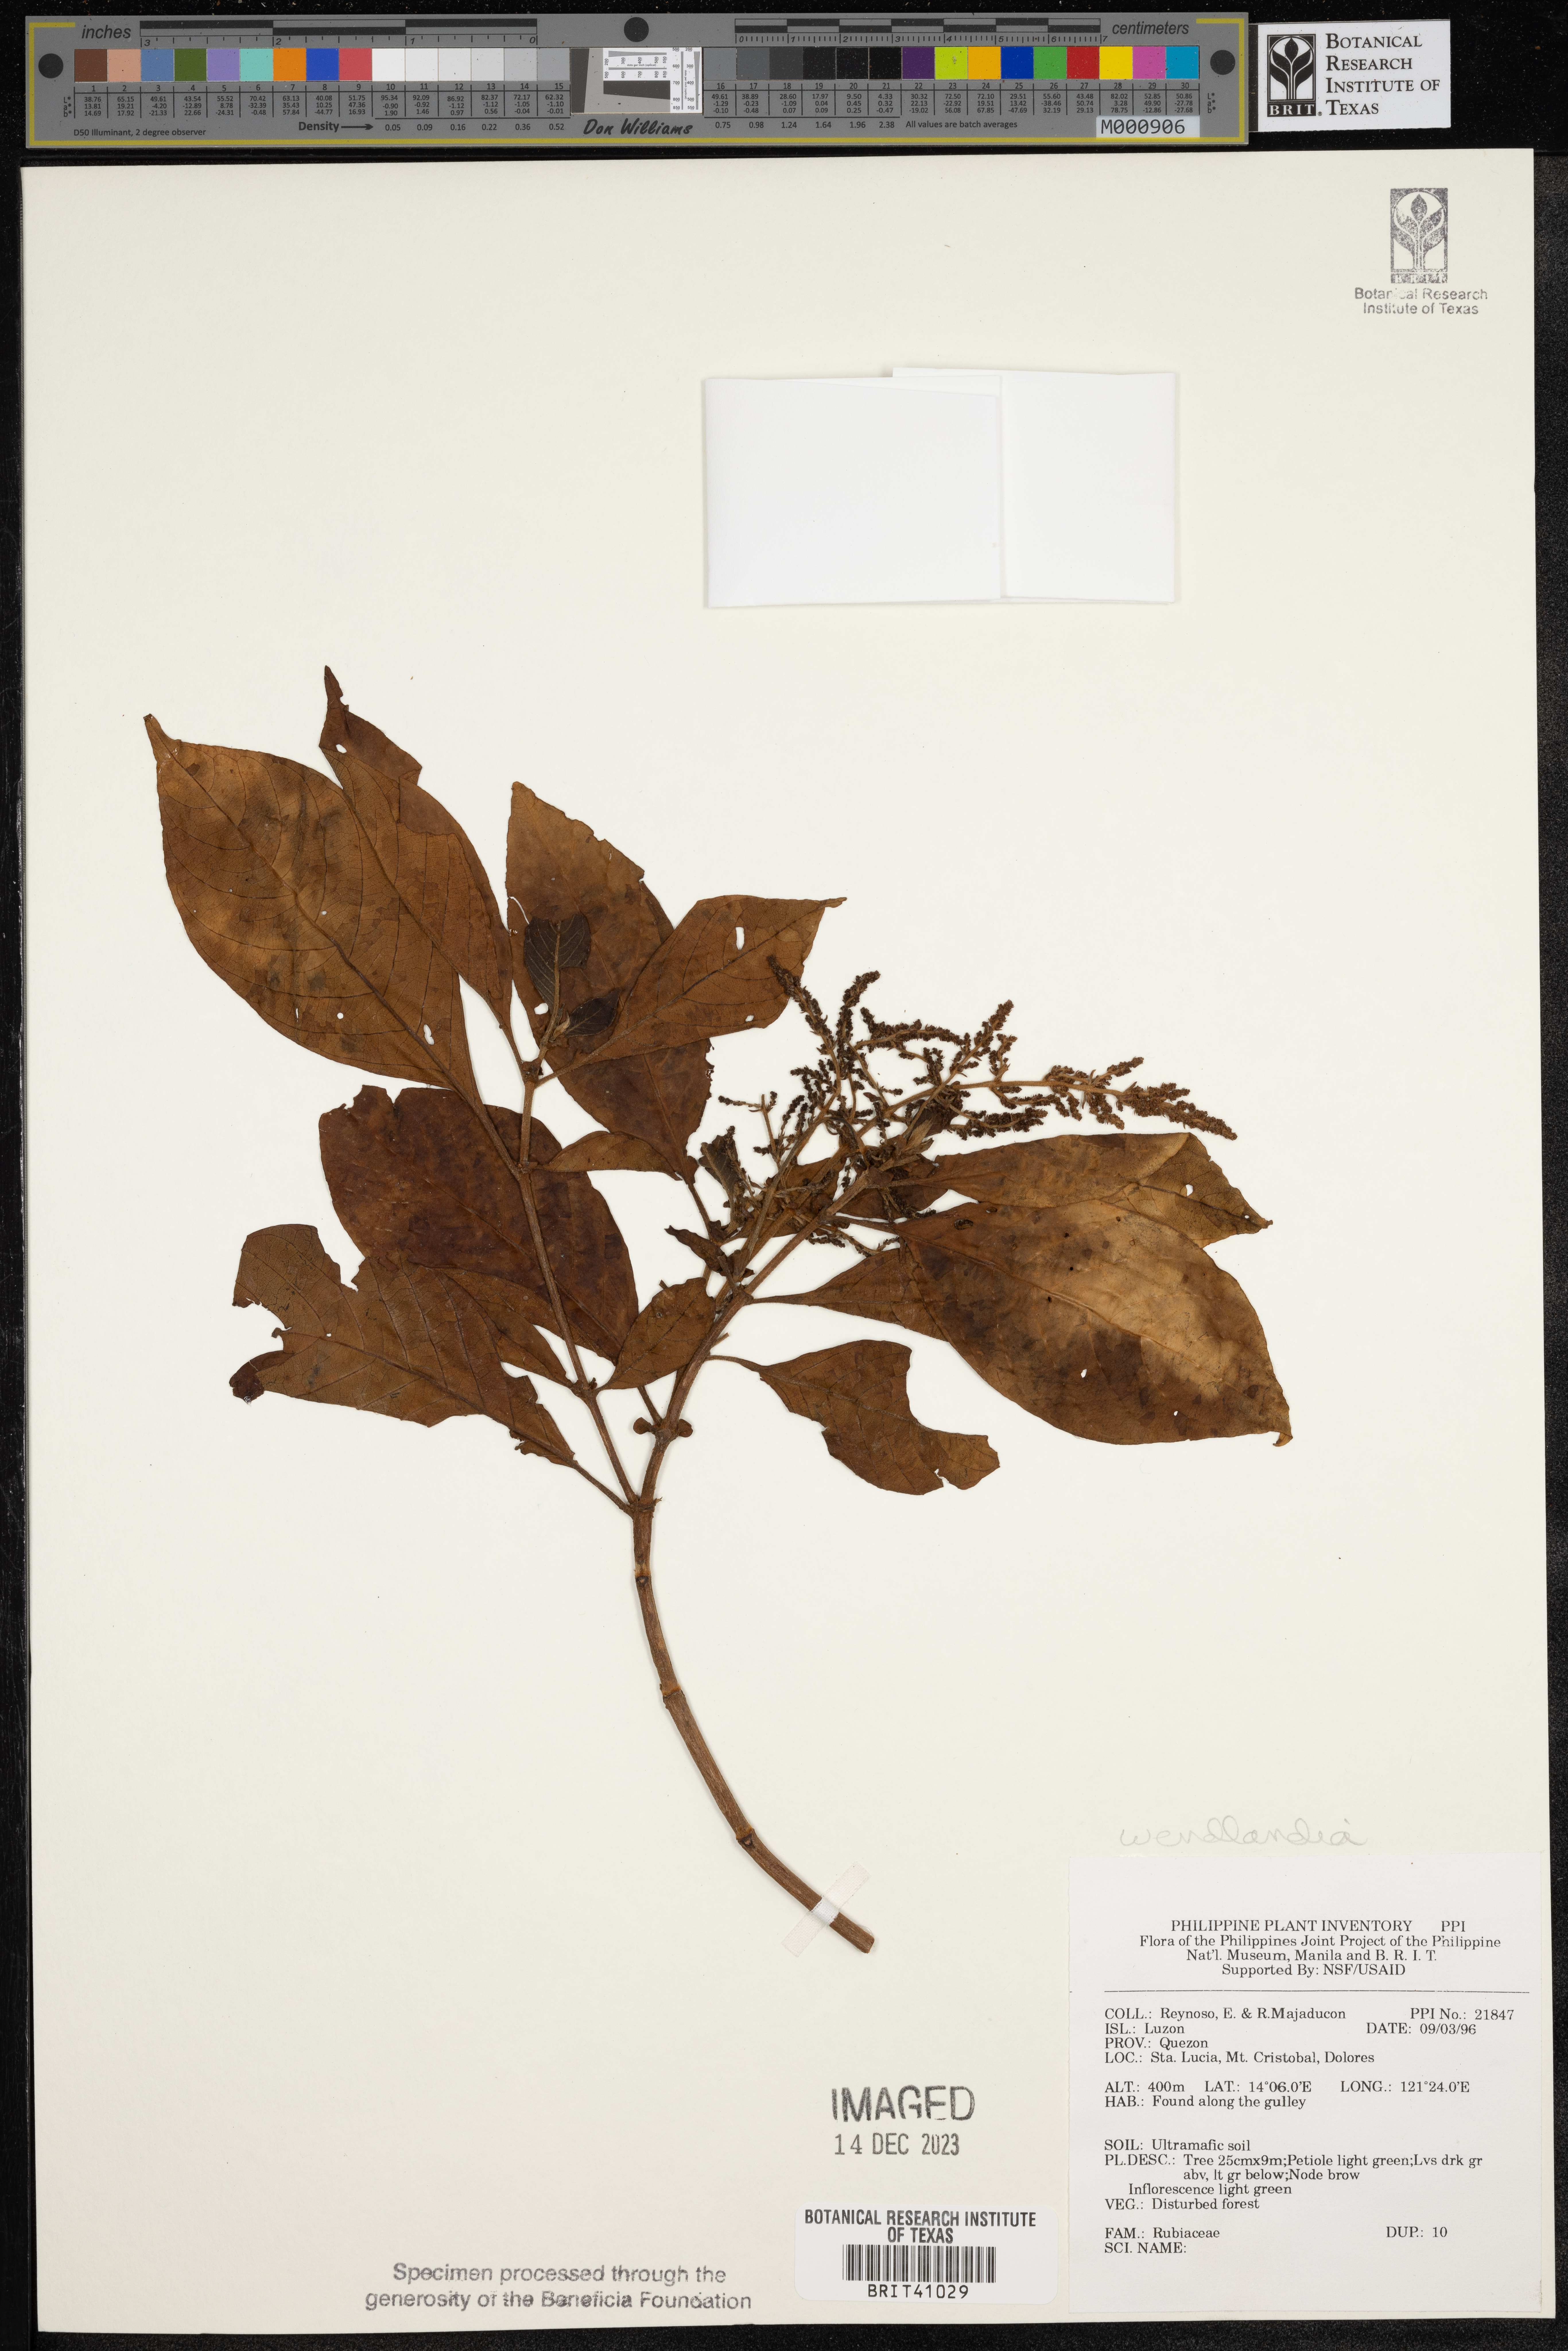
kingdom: Plantae
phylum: Tracheophyta
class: Magnoliopsida
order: Gentianales
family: Rubiaceae
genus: Wendlandia
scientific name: Wendlandia
